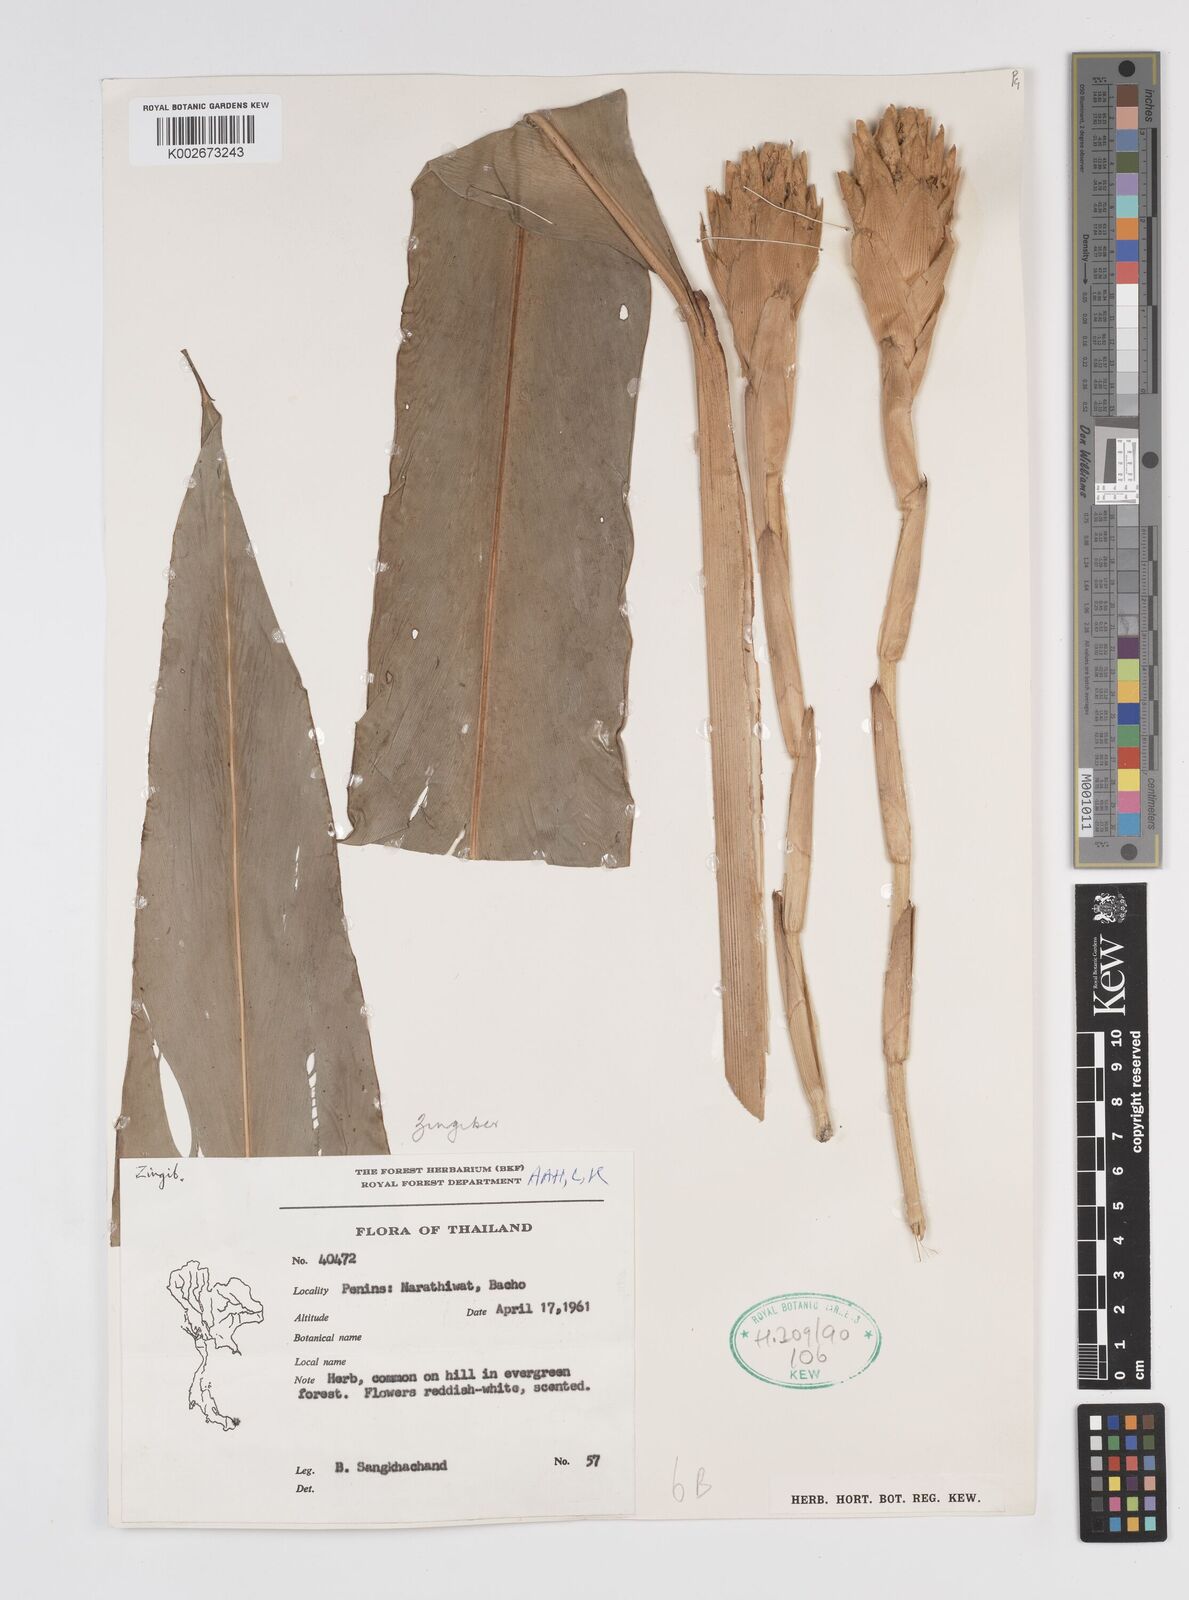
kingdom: Plantae
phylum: Tracheophyta
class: Liliopsida
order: Zingiberales
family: Zingiberaceae
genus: Wurfbainia
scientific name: Wurfbainia testacea
